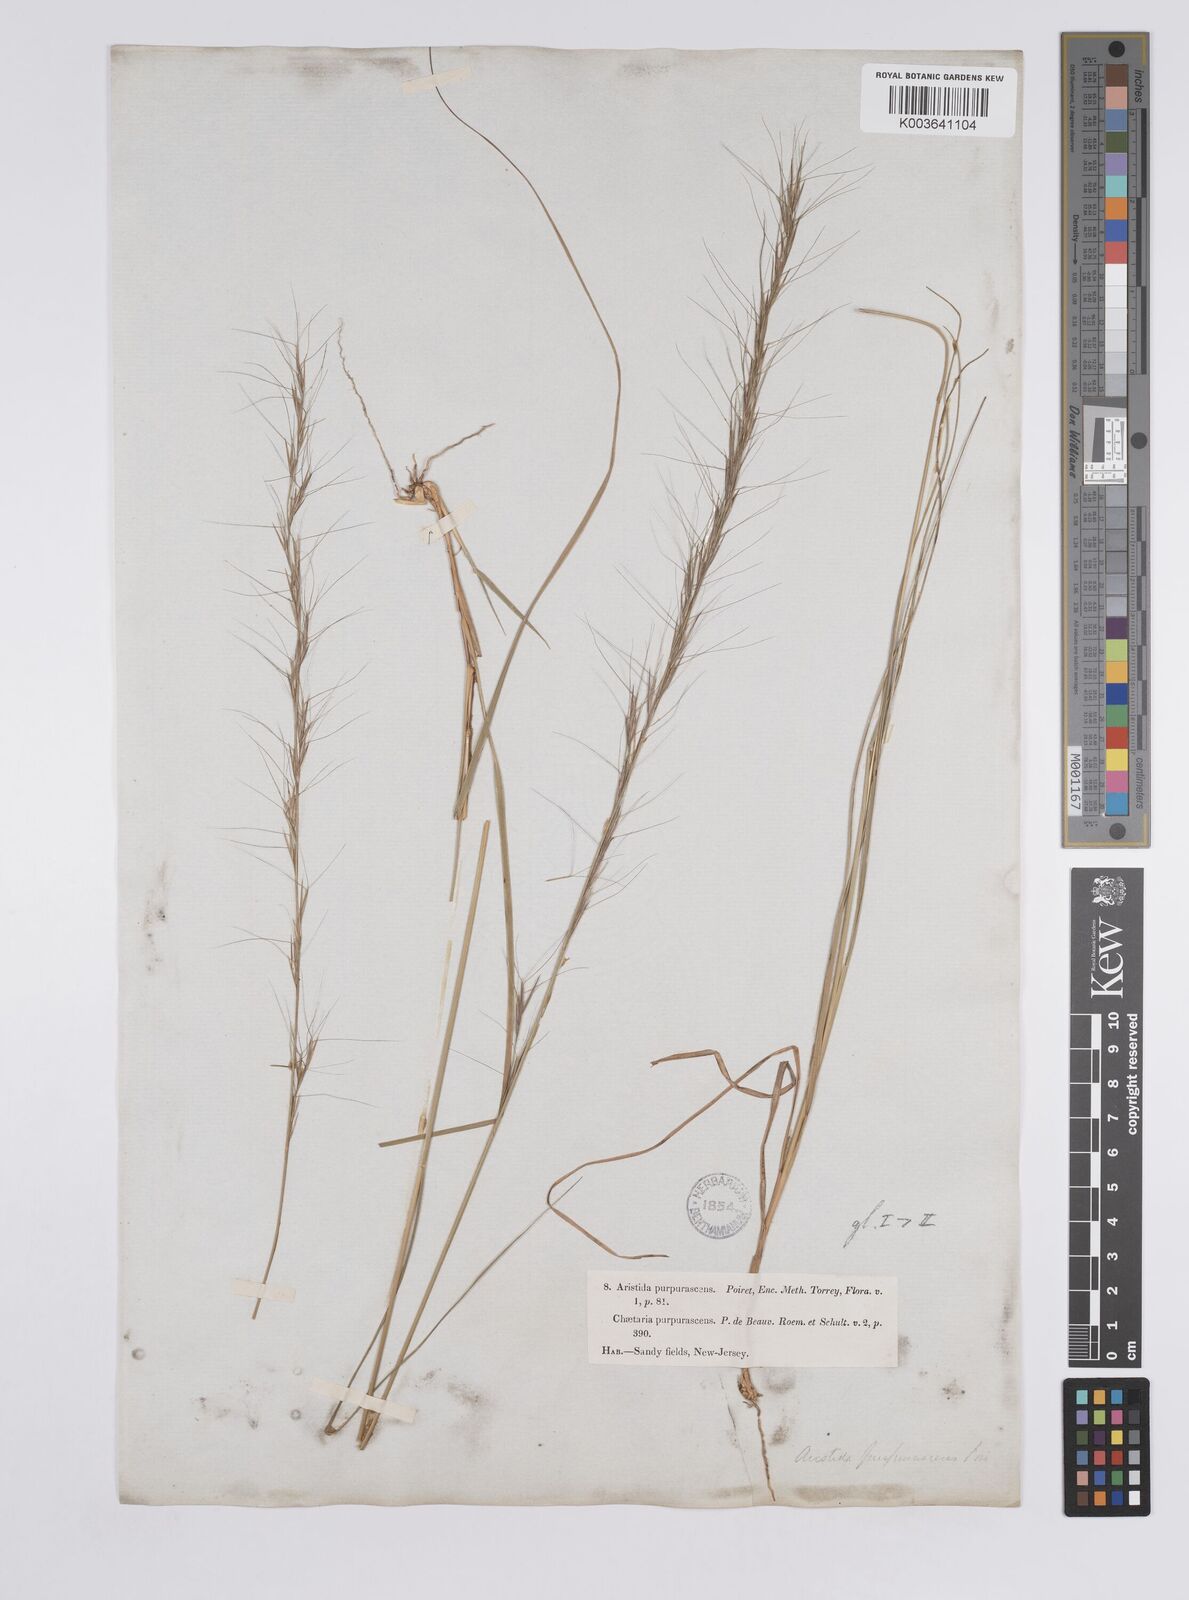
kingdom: Plantae
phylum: Tracheophyta
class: Liliopsida
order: Poales
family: Poaceae
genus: Aristida
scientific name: Aristida purpurascens
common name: Arrow-feather
